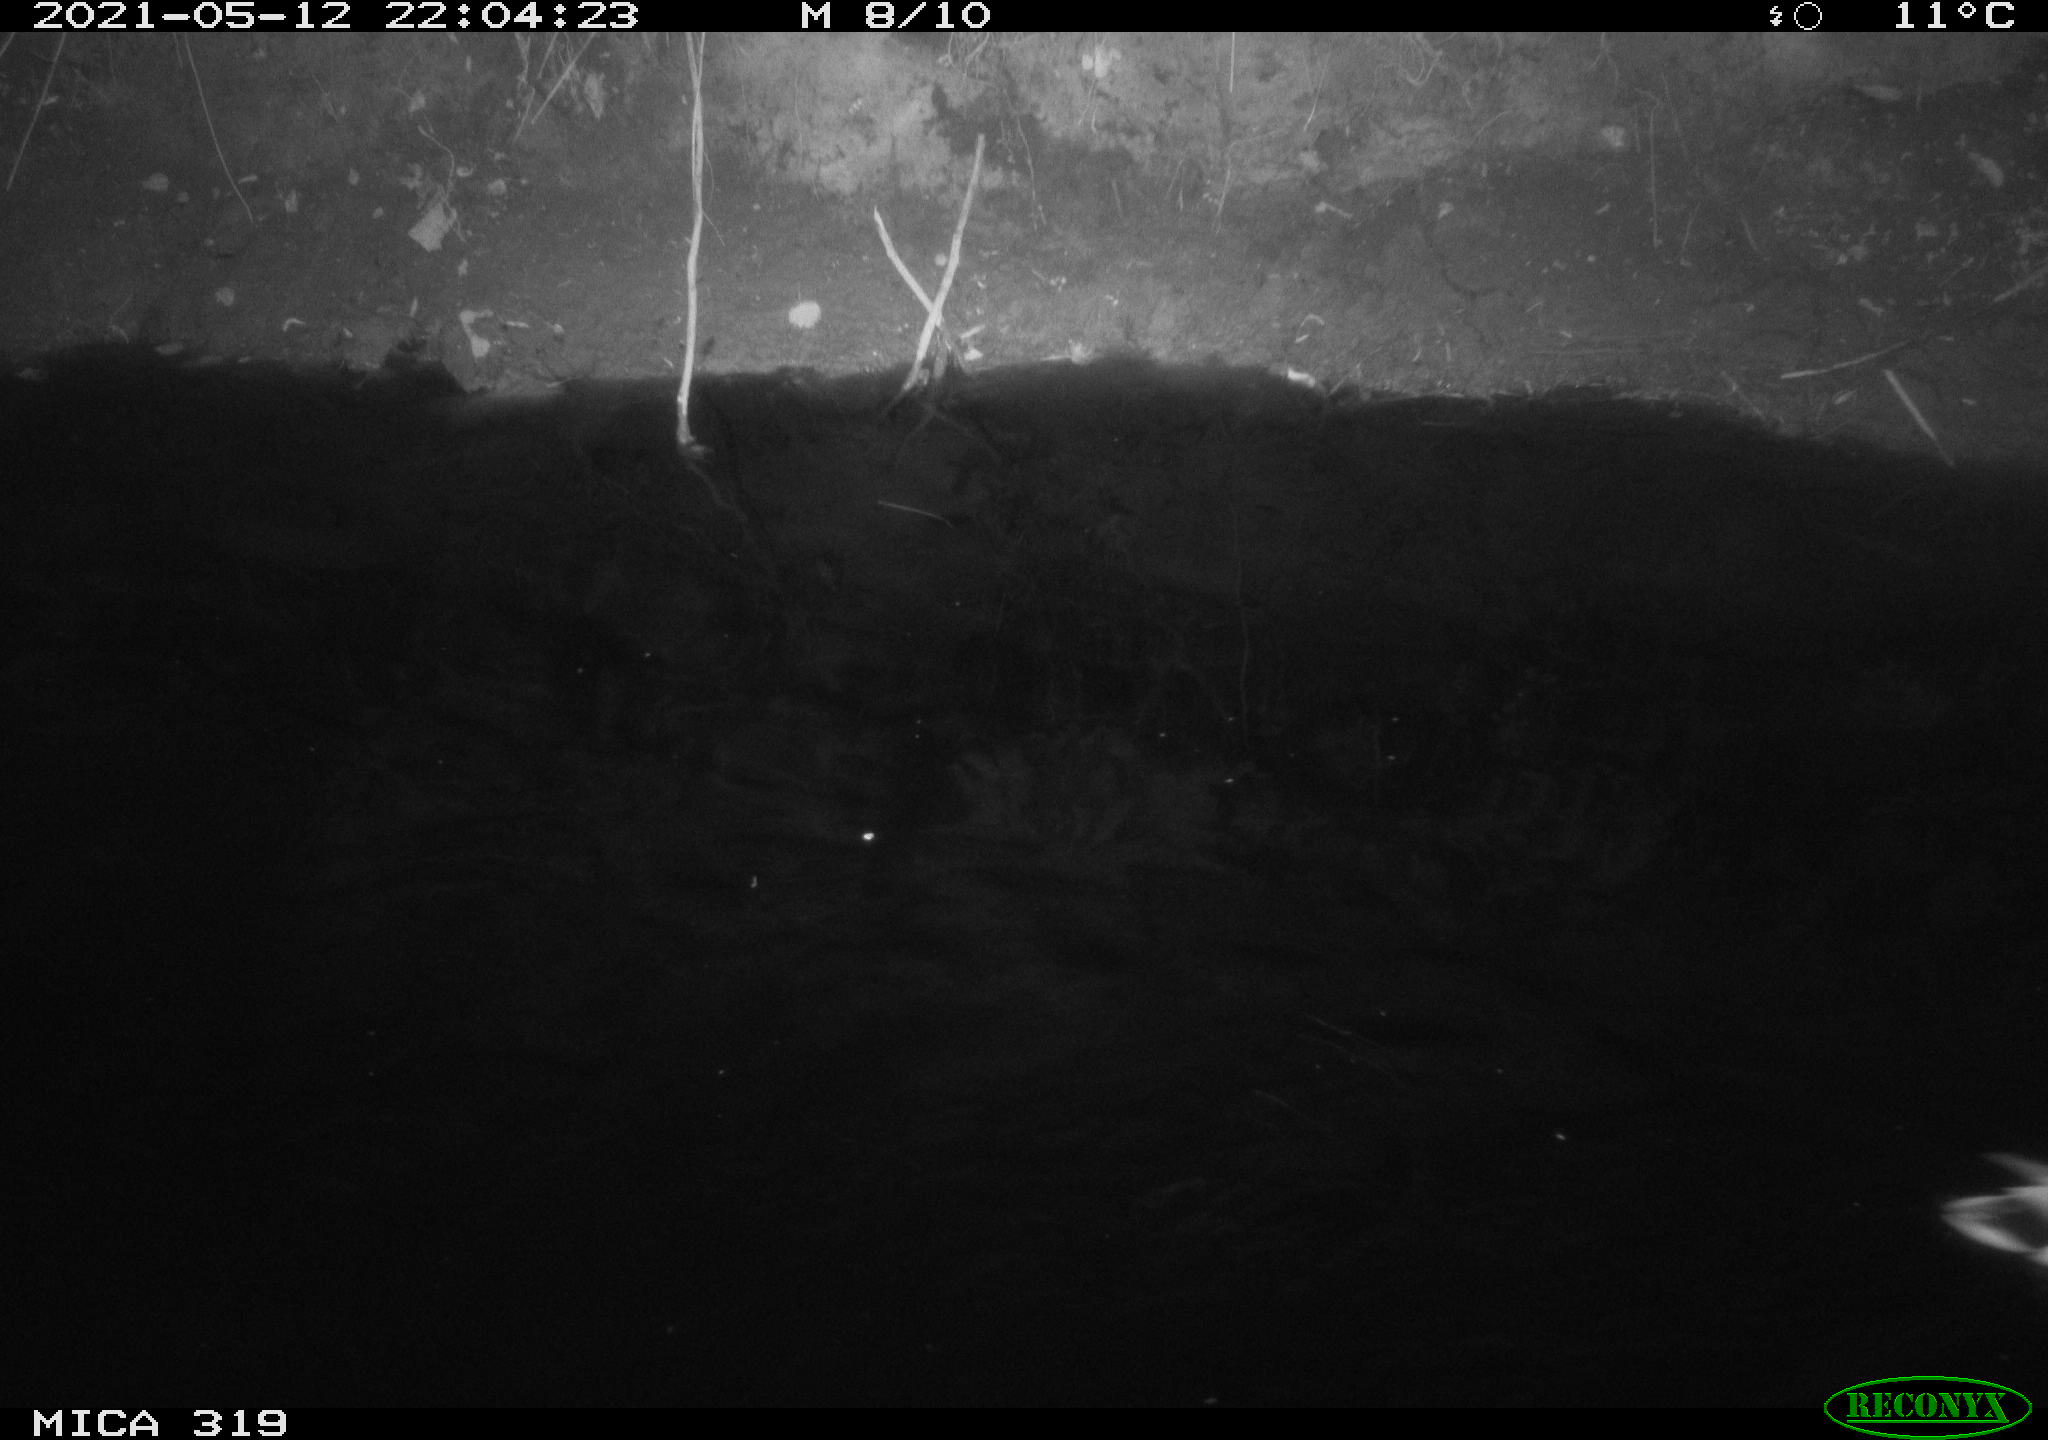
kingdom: Animalia
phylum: Chordata
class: Aves
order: Anseriformes
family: Anatidae
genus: Anas
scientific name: Anas platyrhynchos
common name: Mallard
